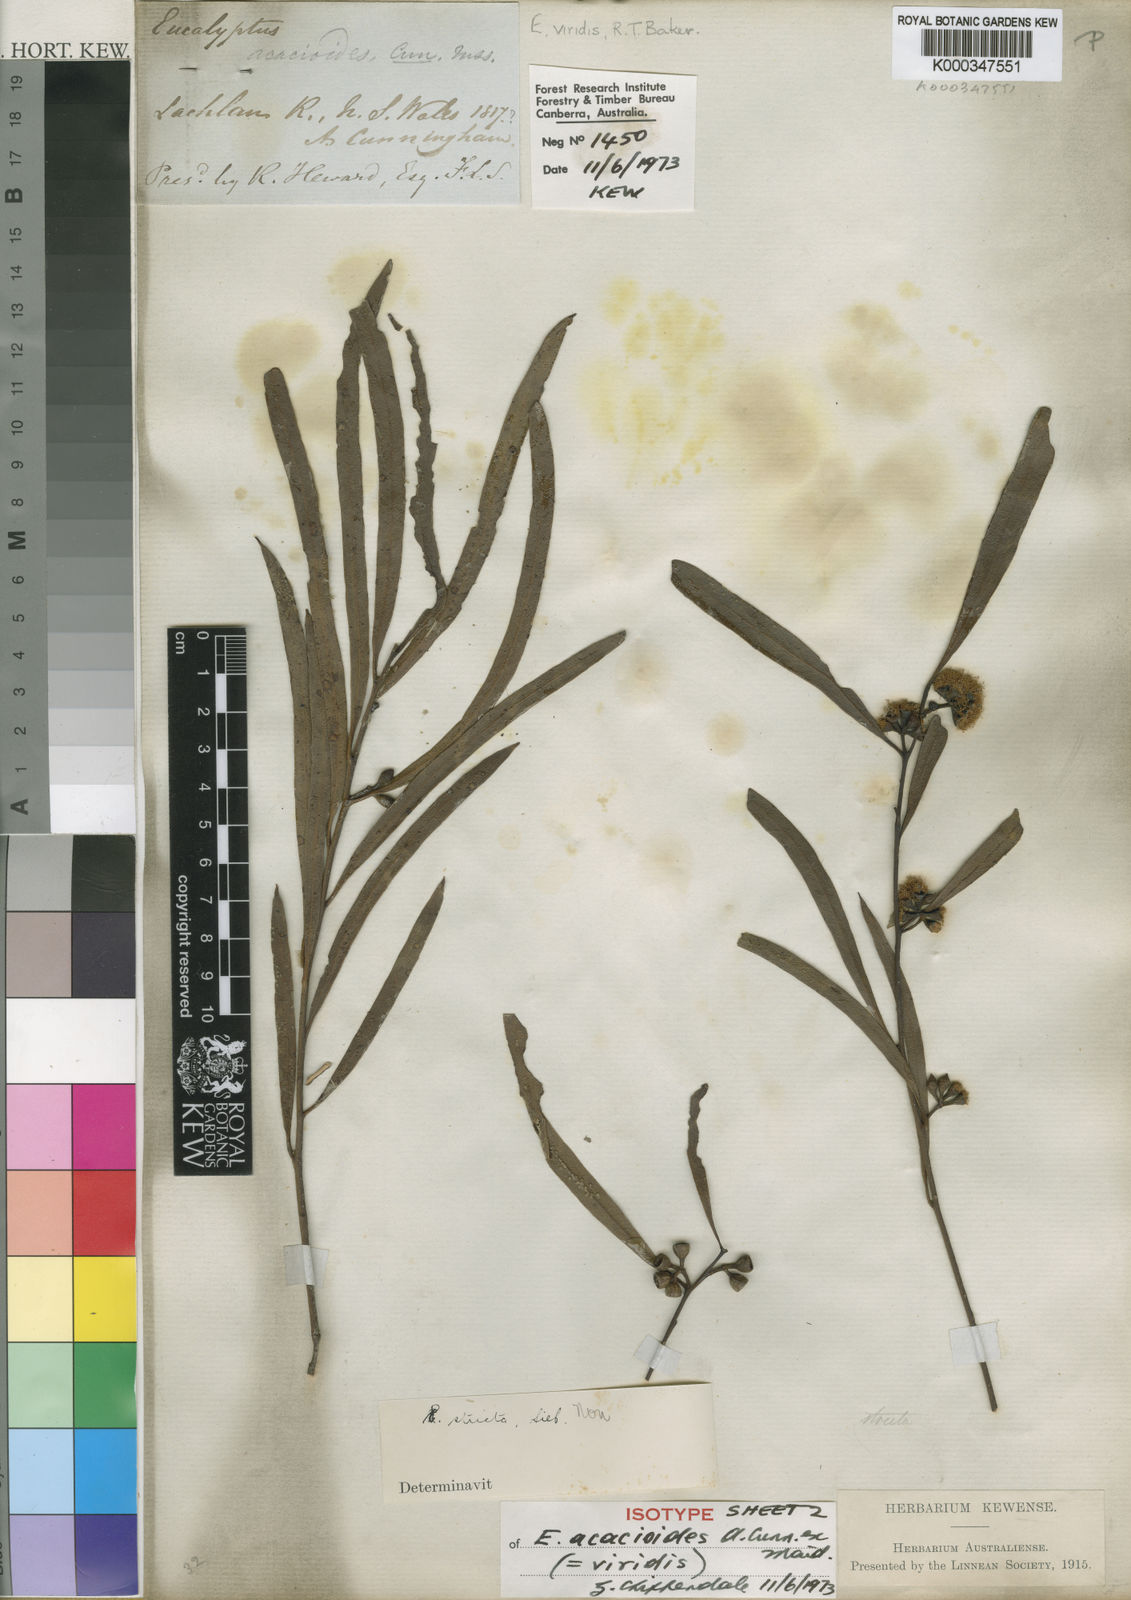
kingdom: Plantae
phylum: Tracheophyta
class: Magnoliopsida
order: Myrtales
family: Myrtaceae
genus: Eucalyptus
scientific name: Eucalyptus viridis
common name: Green mallee
